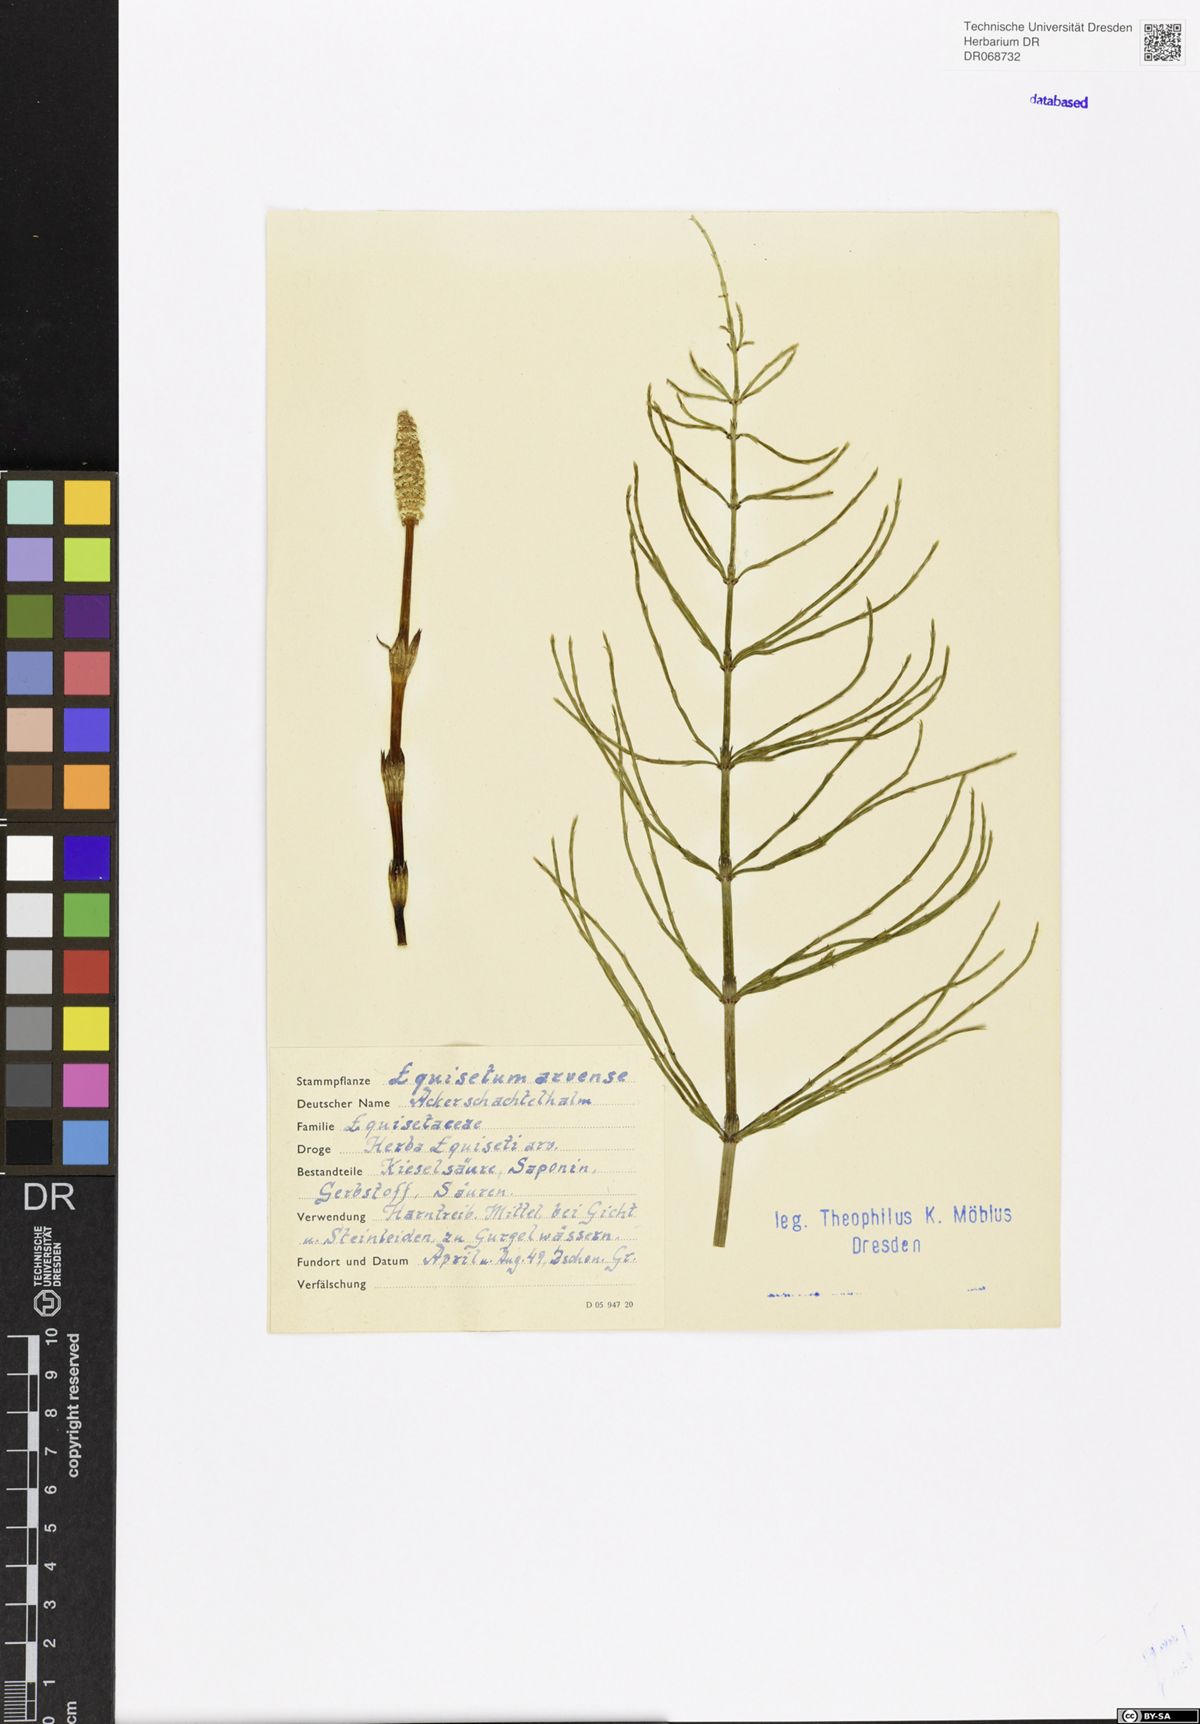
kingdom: Plantae
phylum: Tracheophyta
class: Polypodiopsida
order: Equisetales
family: Equisetaceae
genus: Equisetum
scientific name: Equisetum arvense
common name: Field horsetail
